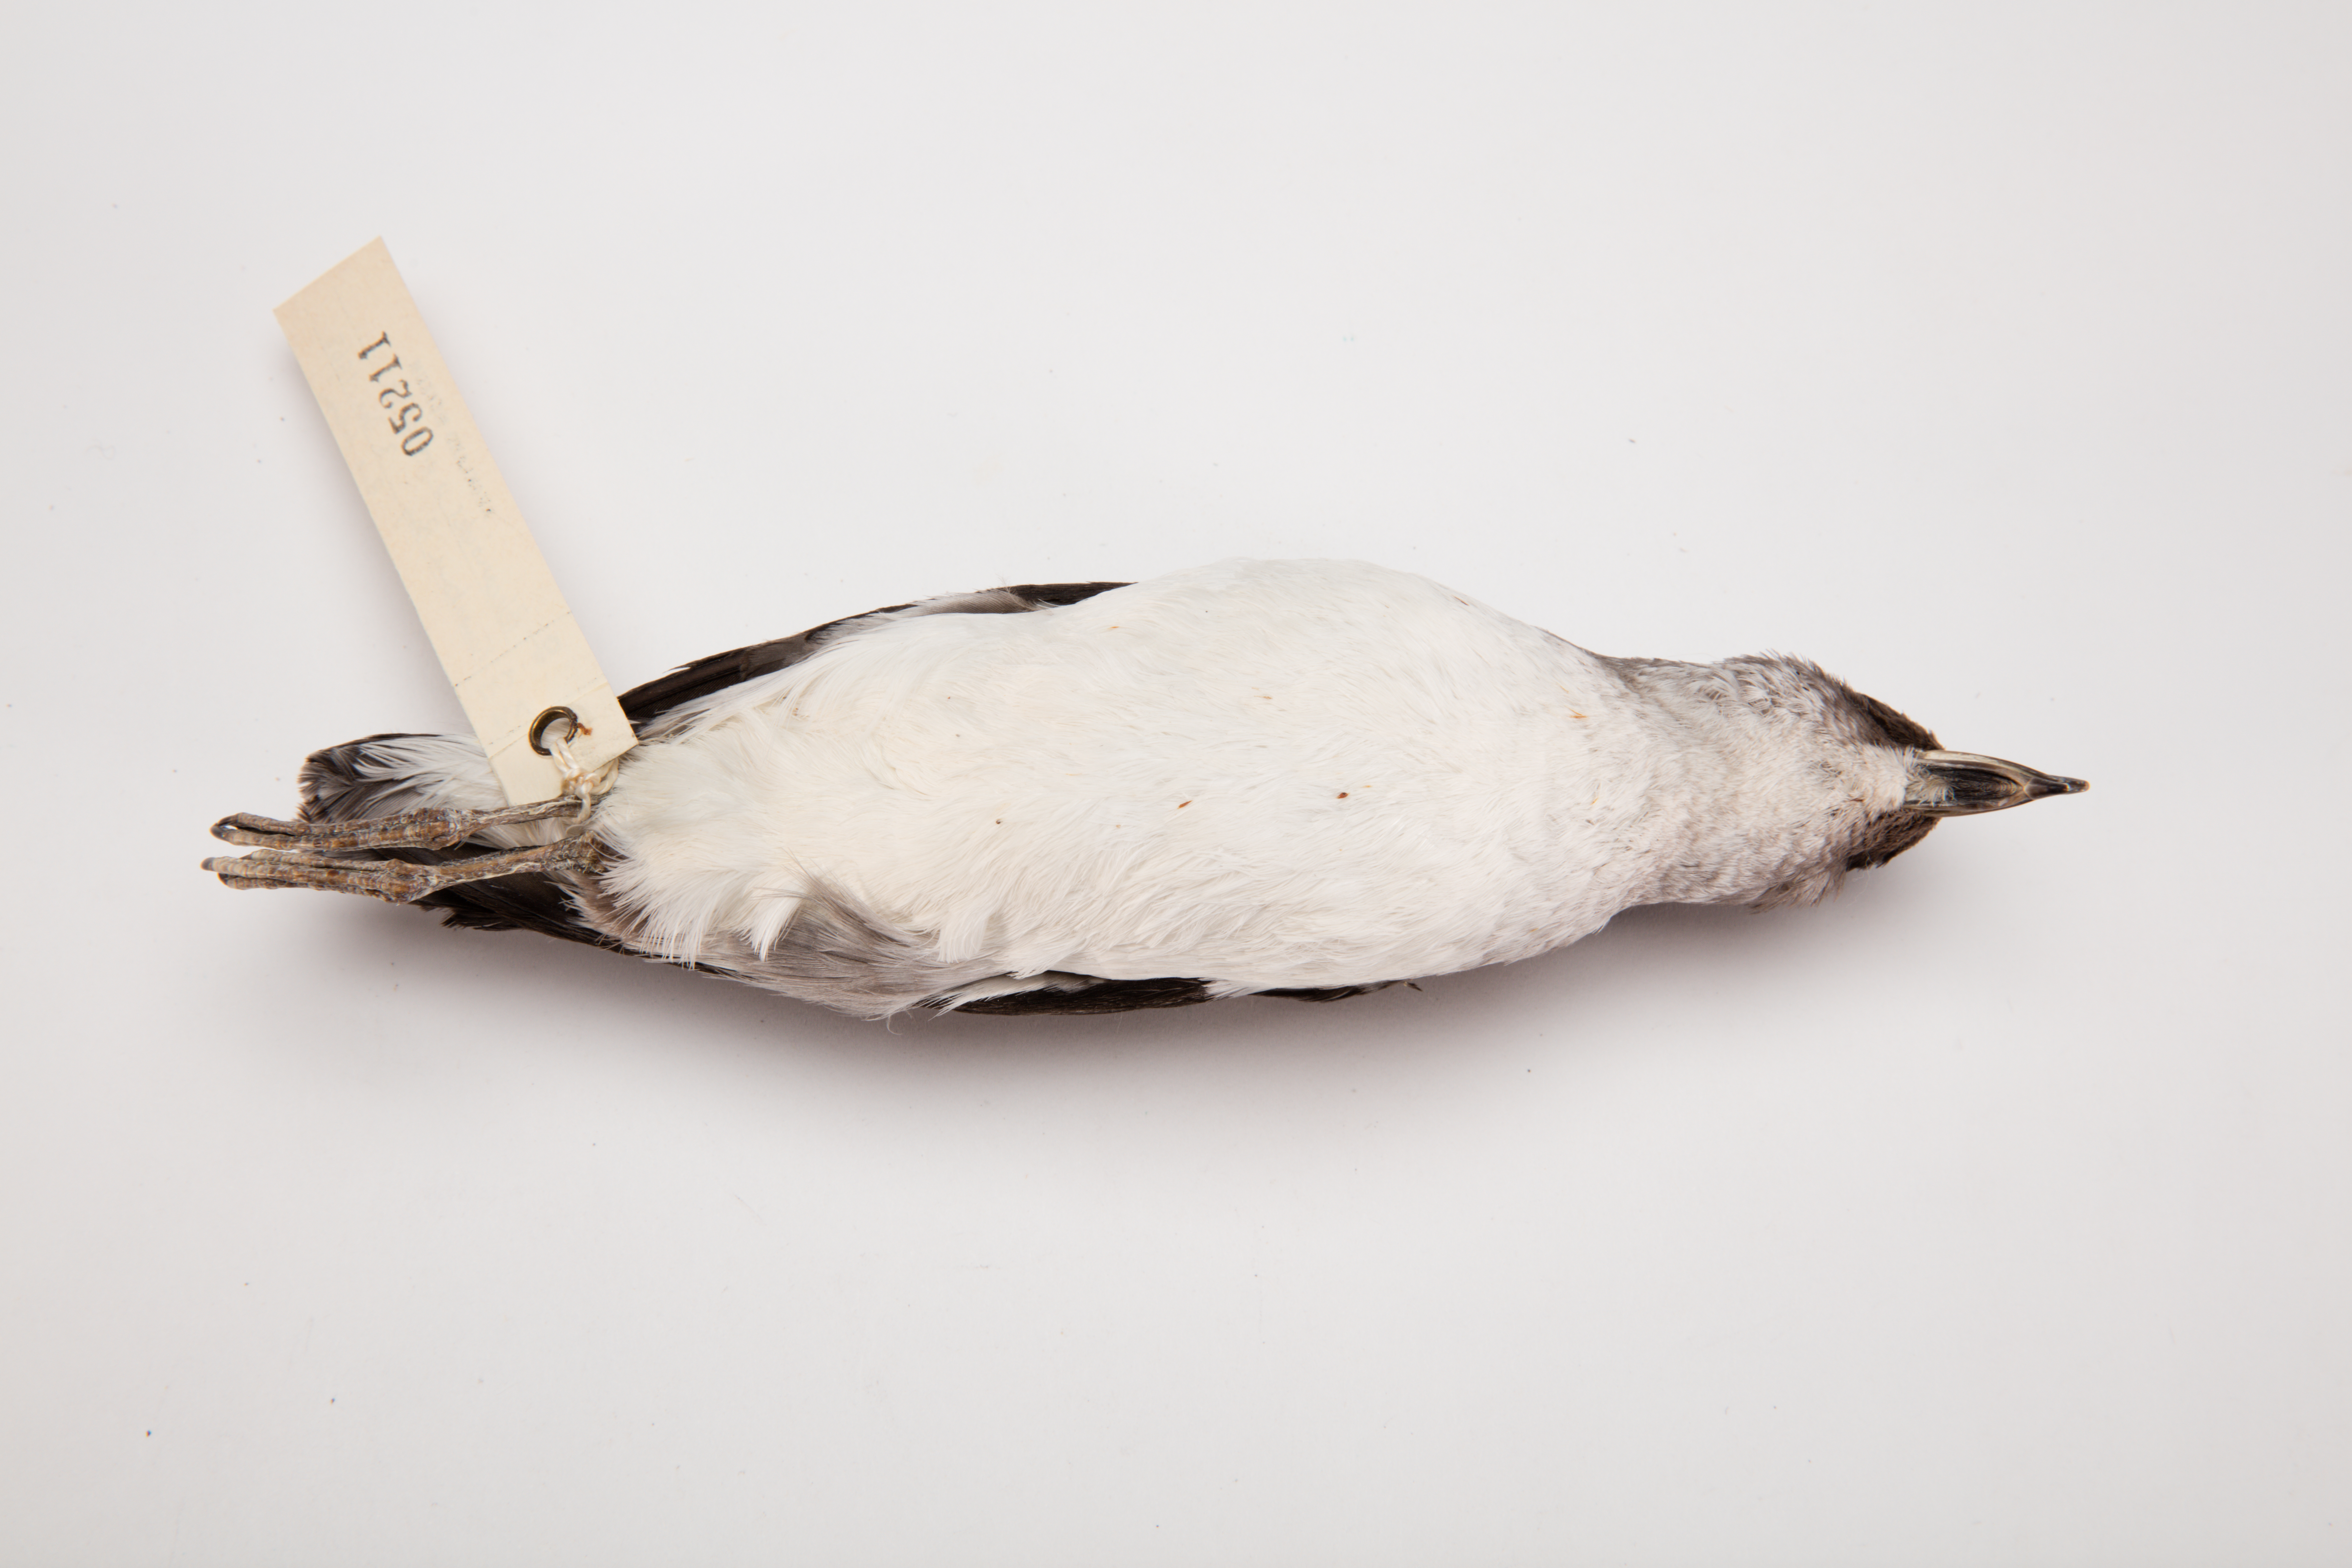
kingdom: Animalia
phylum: Chordata
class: Aves
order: Procellariiformes
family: Pelecanoididae
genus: Pelecanoides
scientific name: Pelecanoides urinatrix
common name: Common diving-petrel
